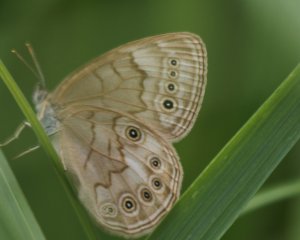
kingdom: Animalia
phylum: Arthropoda
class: Insecta
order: Lepidoptera
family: Nymphalidae
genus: Lethe
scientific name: Lethe eurydice
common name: Eyed Brown
